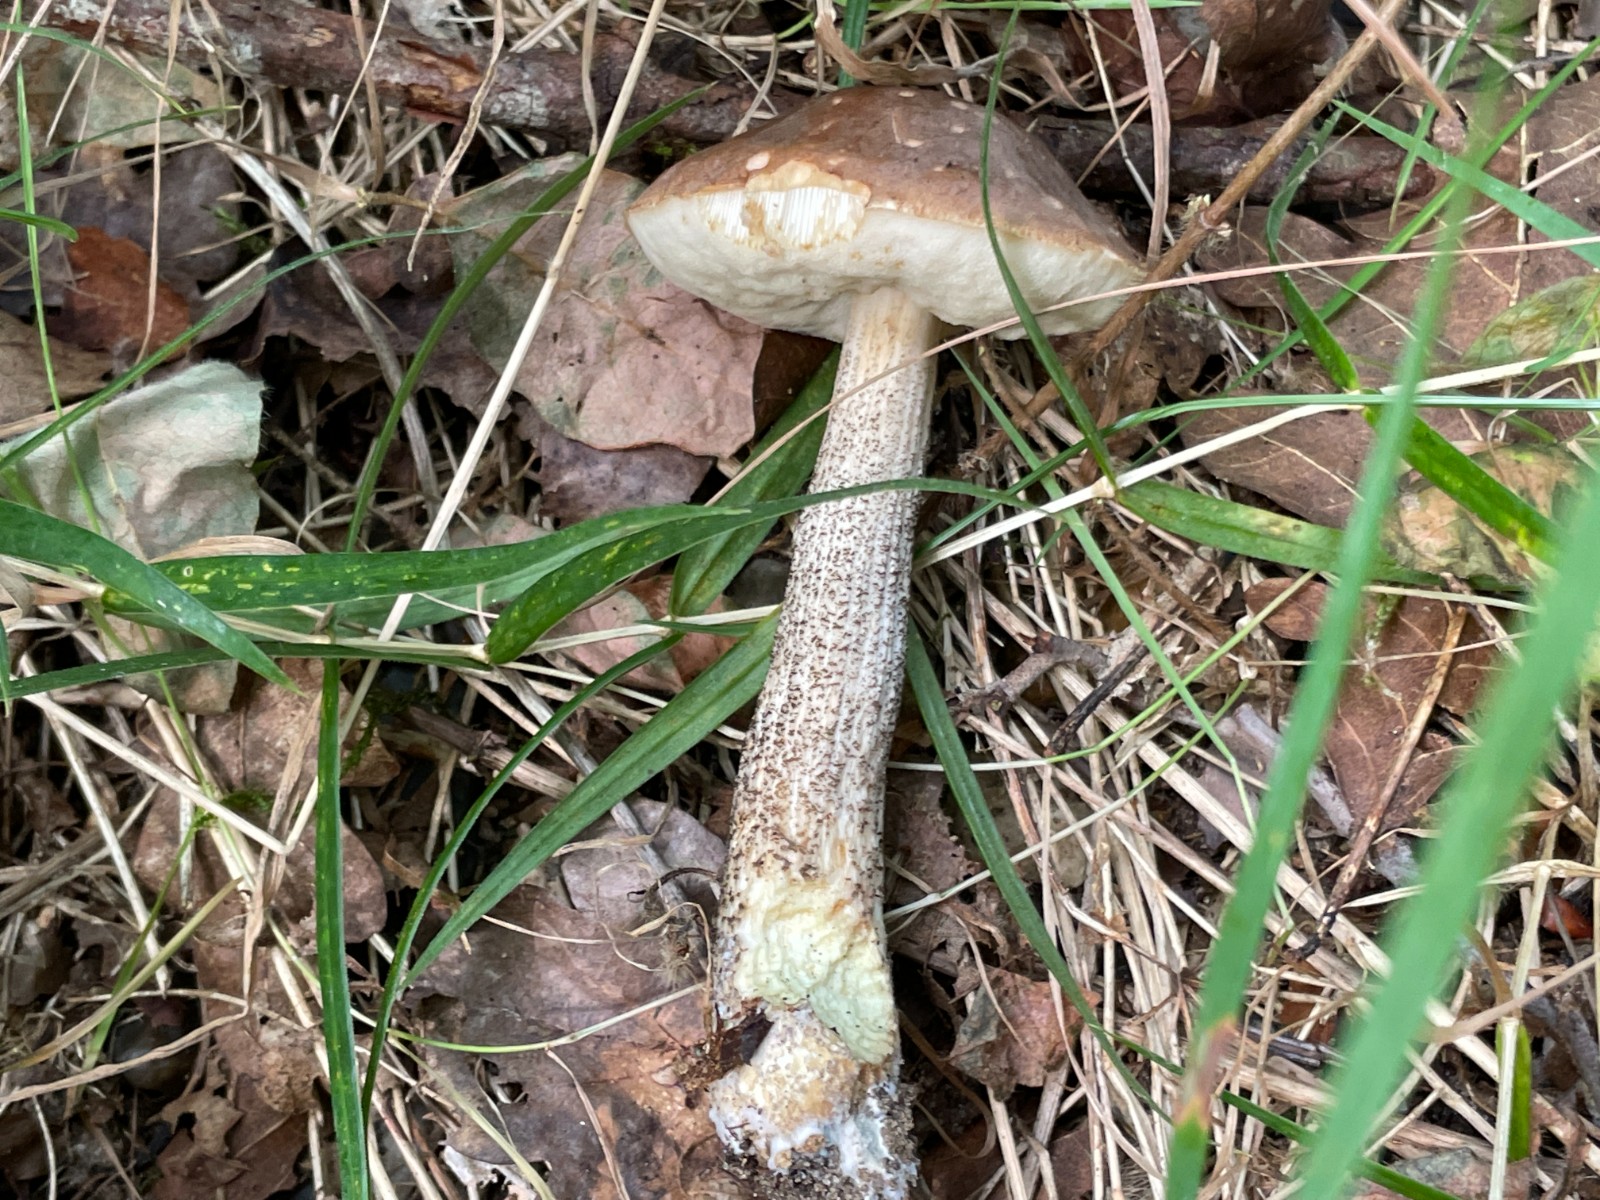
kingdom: Fungi
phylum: Basidiomycota
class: Agaricomycetes
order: Boletales
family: Boletaceae
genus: Leccinum
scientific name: Leccinum scabrum
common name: brun skælrørhat
